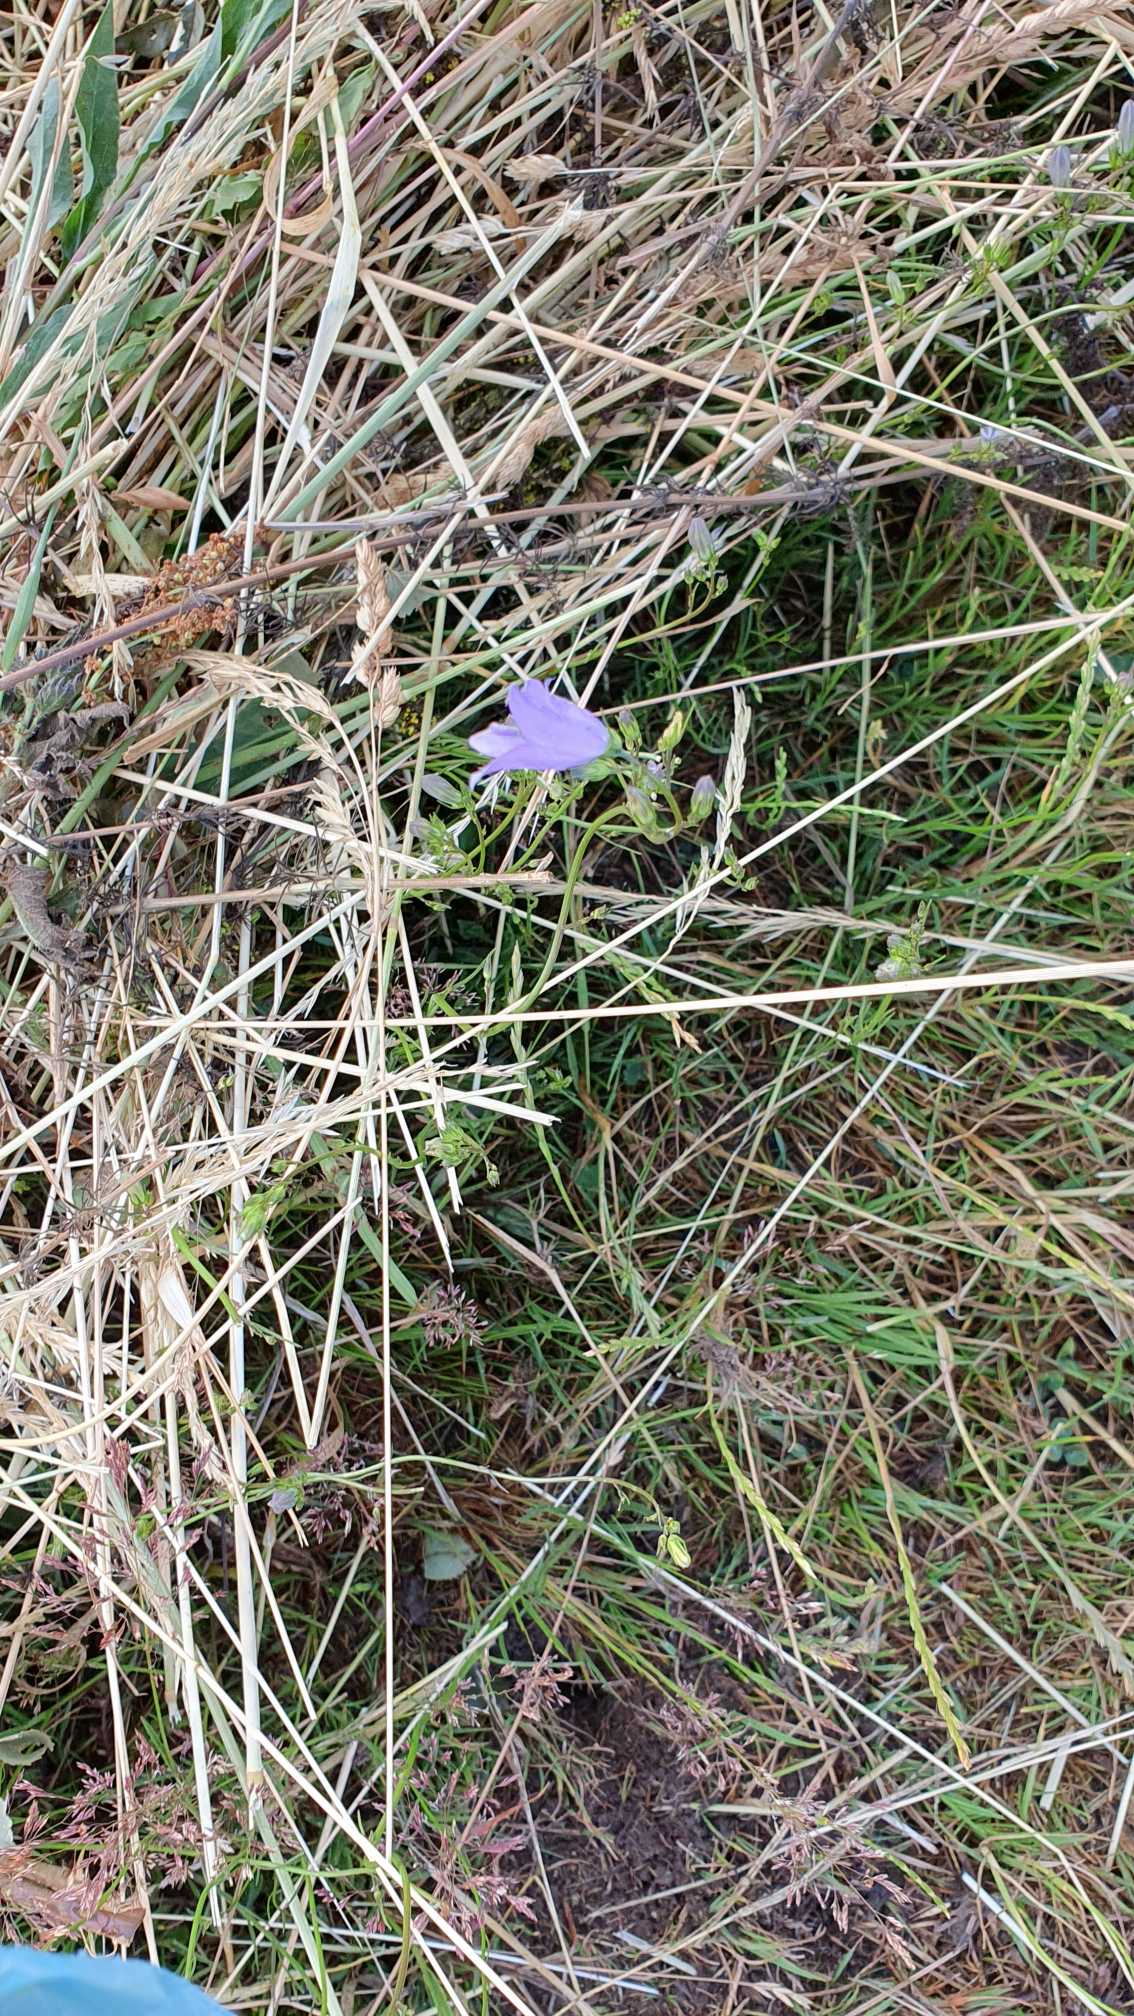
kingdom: Plantae
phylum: Tracheophyta
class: Magnoliopsida
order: Asterales
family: Campanulaceae
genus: Campanula
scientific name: Campanula rotundifolia
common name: Liden klokke
